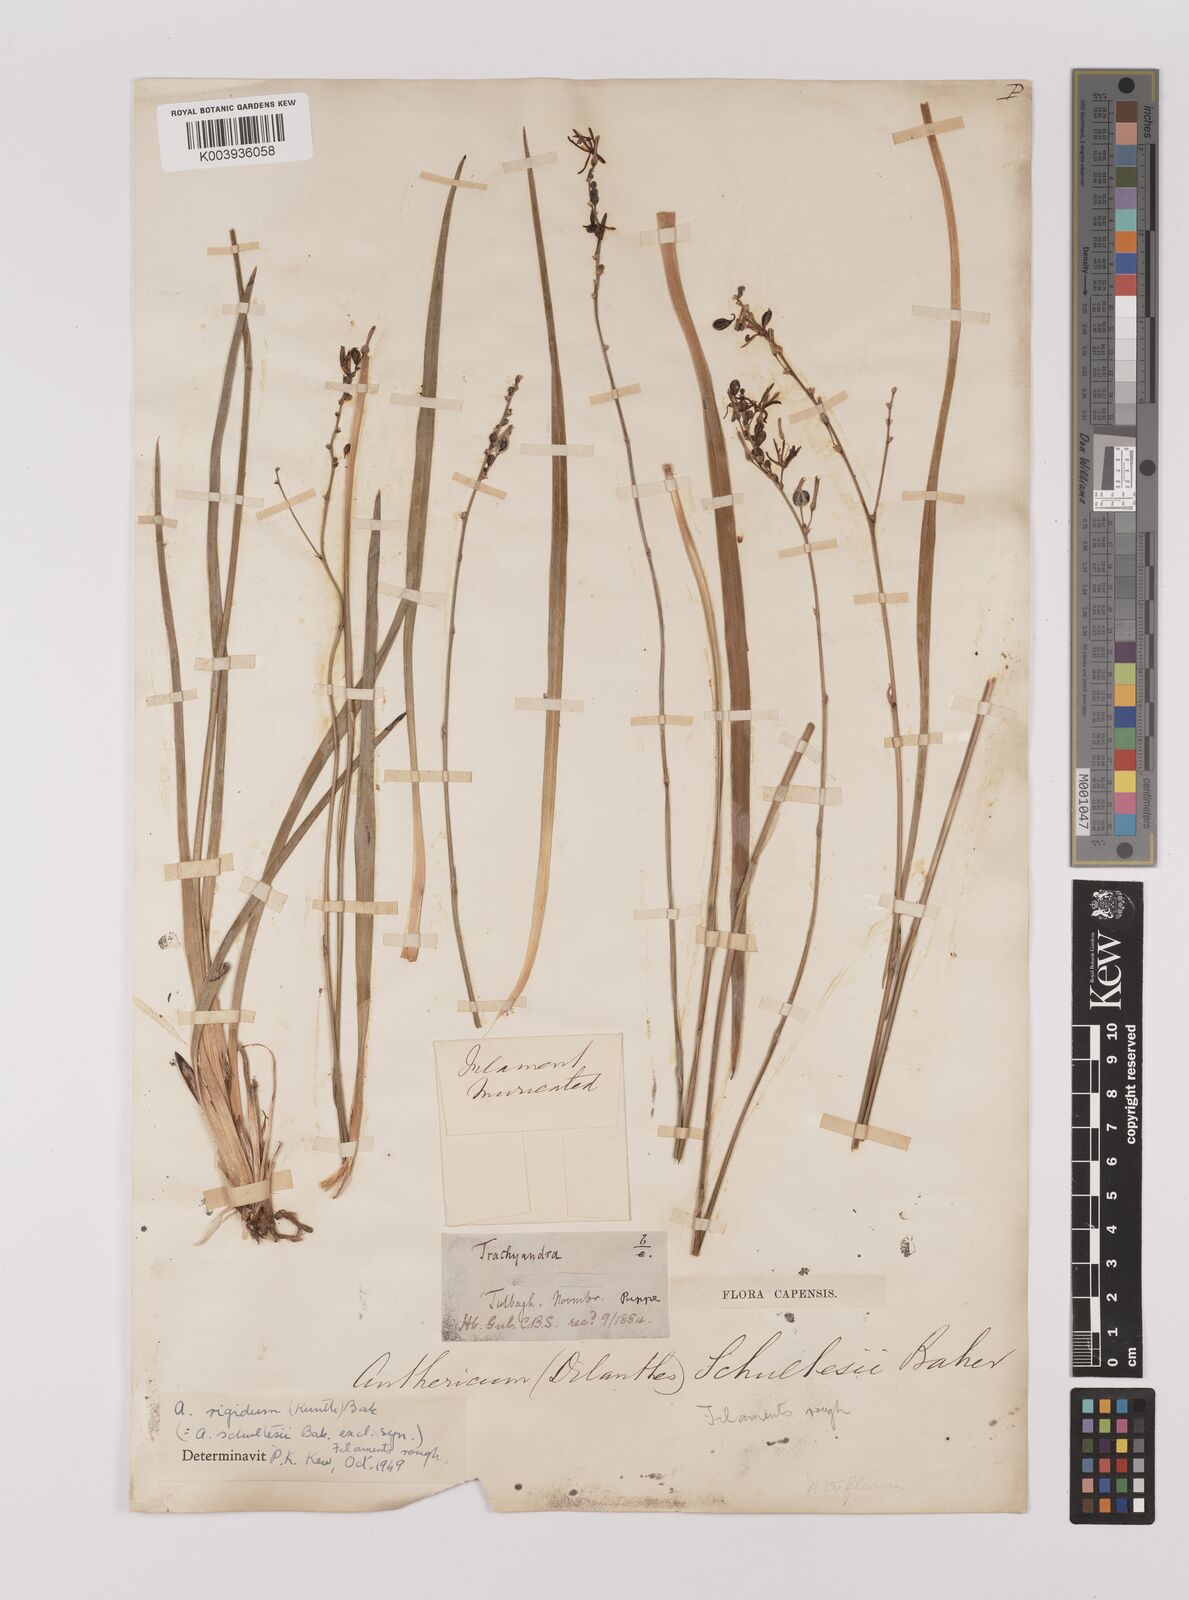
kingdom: Plantae
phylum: Tracheophyta
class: Liliopsida
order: Asparagales
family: Asparagaceae
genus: Chlorophytum
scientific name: Chlorophytum rigidum
